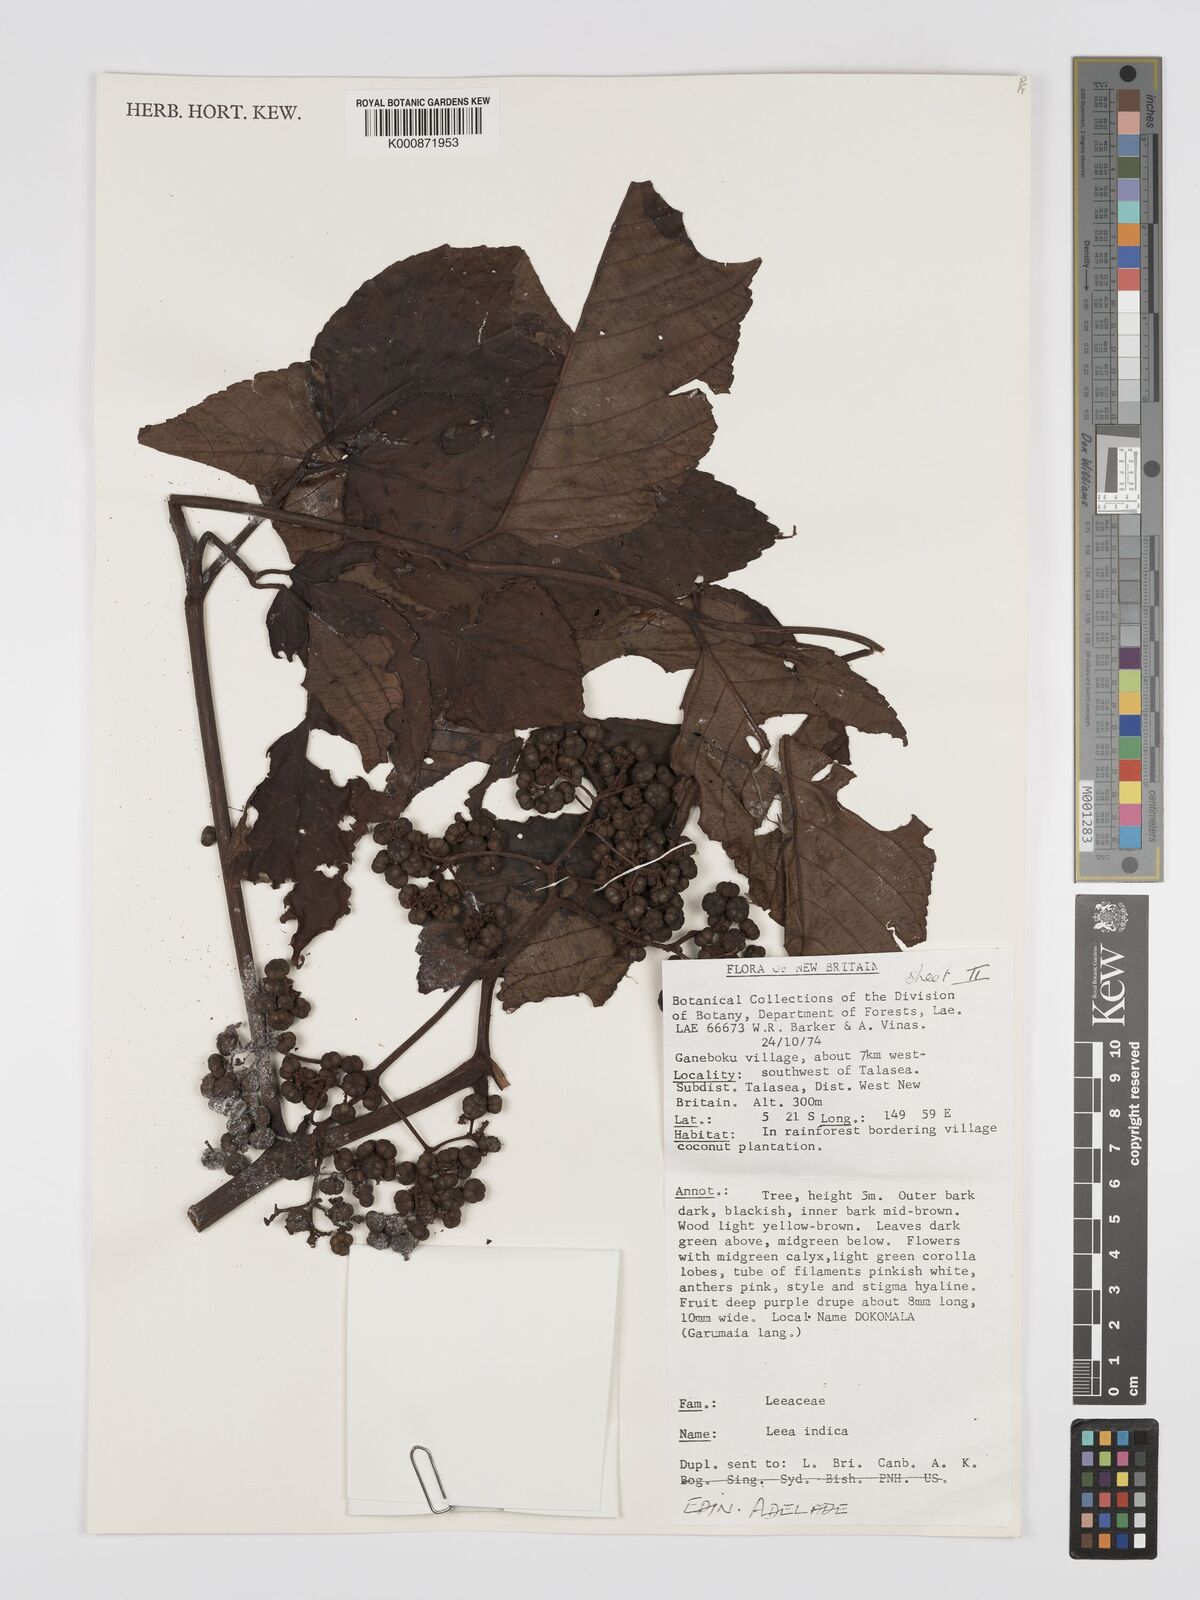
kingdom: Plantae
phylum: Tracheophyta
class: Magnoliopsida
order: Vitales
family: Vitaceae
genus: Leea
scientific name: Leea indica
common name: Bandicoot-berry
